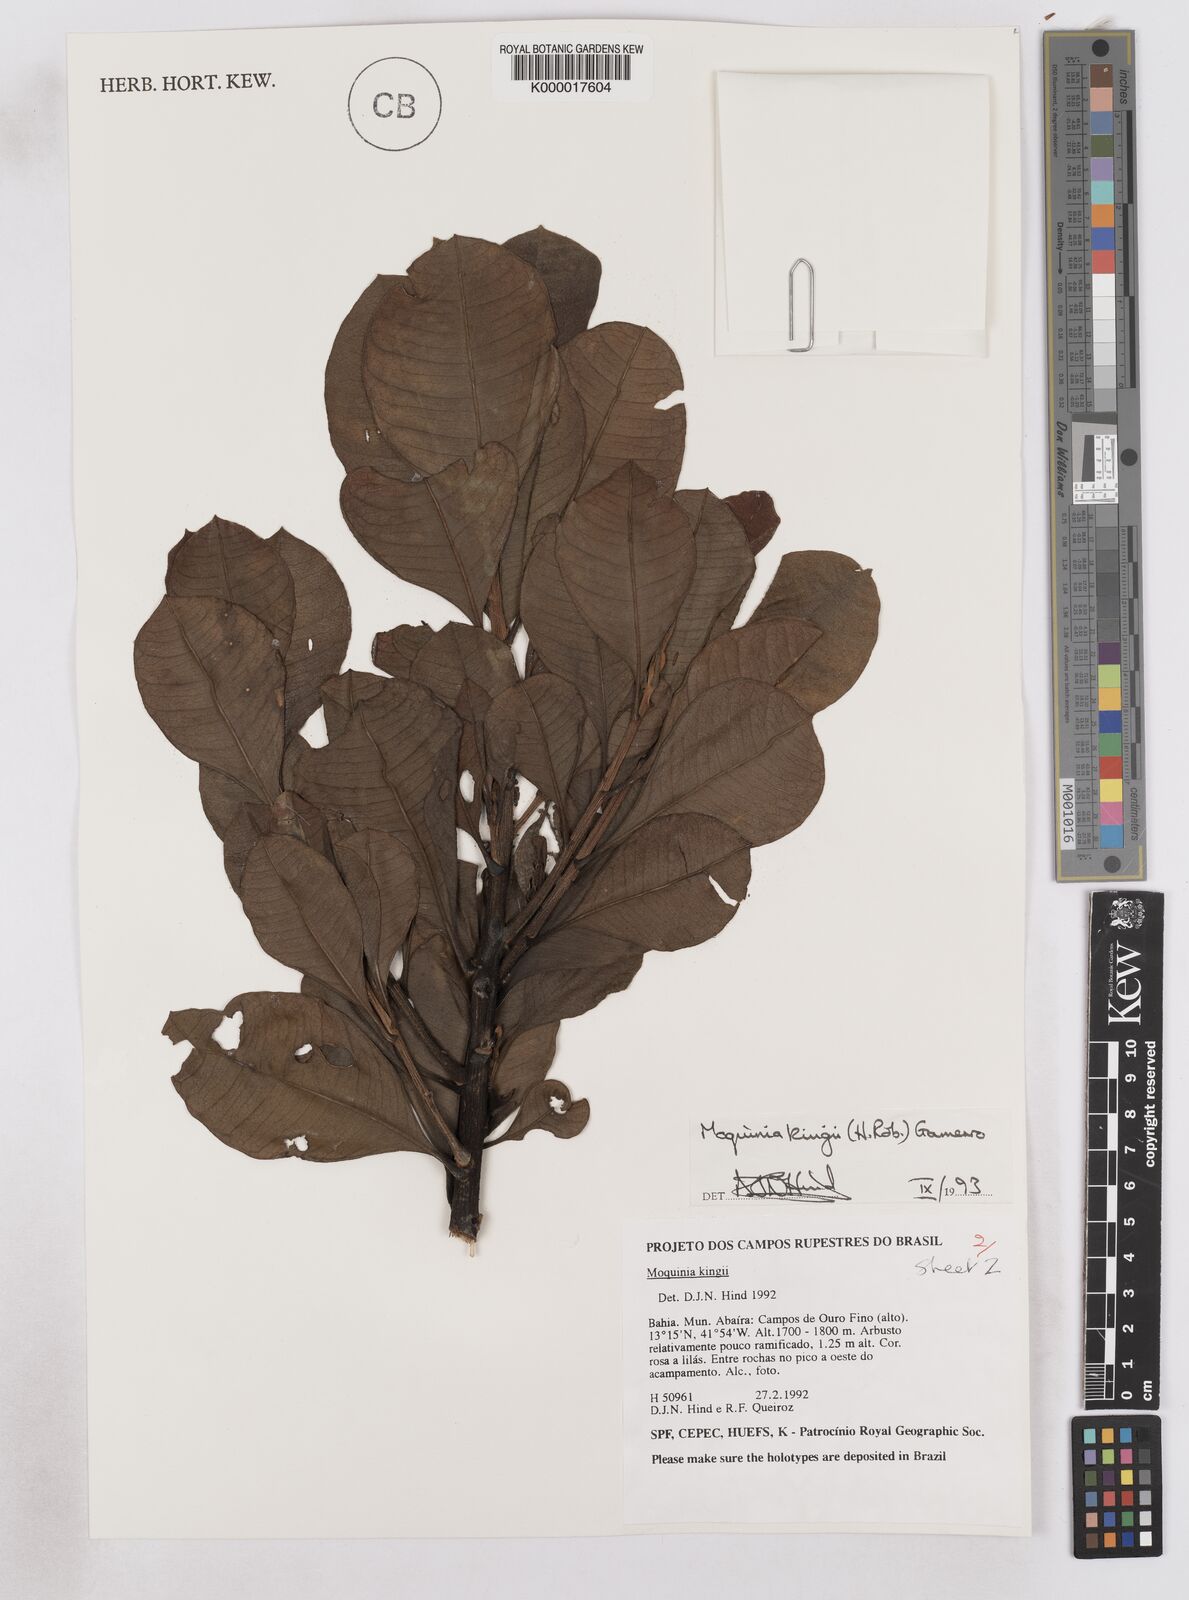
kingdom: Plantae
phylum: Tracheophyta
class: Magnoliopsida
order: Asterales
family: Asteraceae
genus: Pseudostifftia
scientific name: Pseudostifftia kingii
